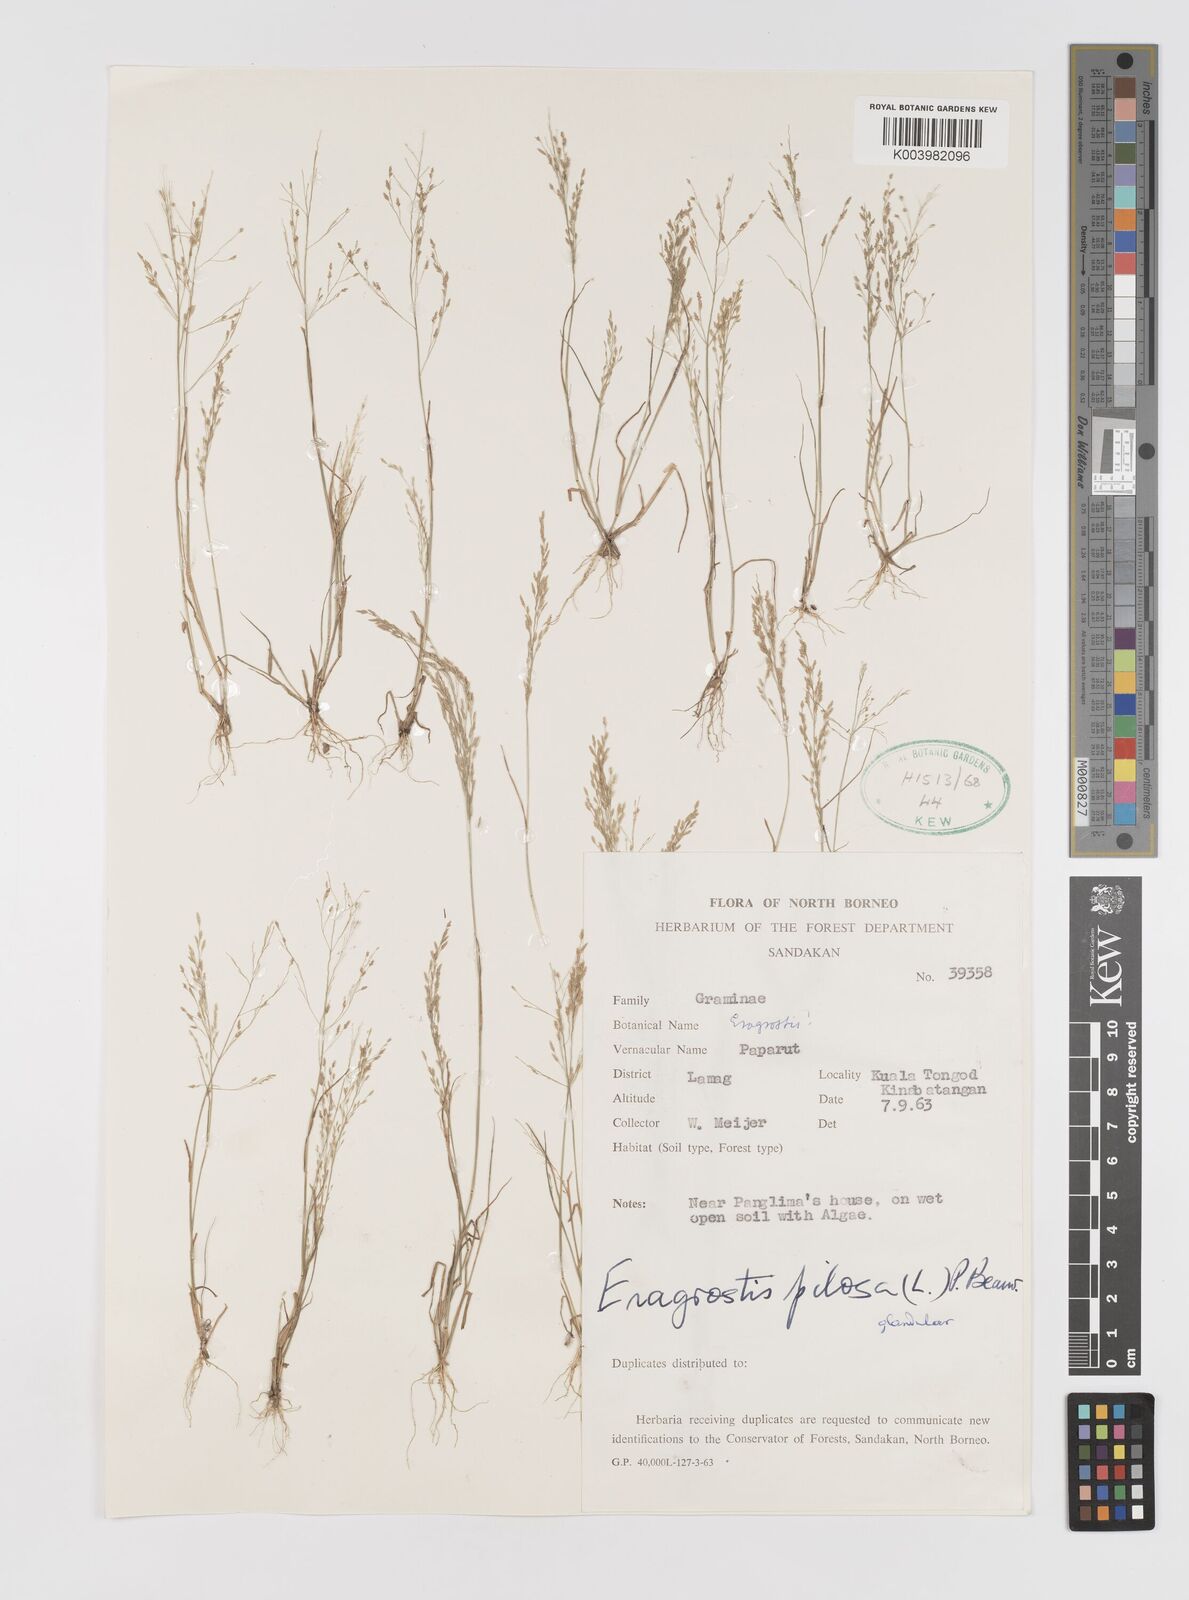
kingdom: Plantae
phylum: Tracheophyta
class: Liliopsida
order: Poales
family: Poaceae
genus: Eragrostis
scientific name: Eragrostis pilosa
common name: Indian lovegrass
